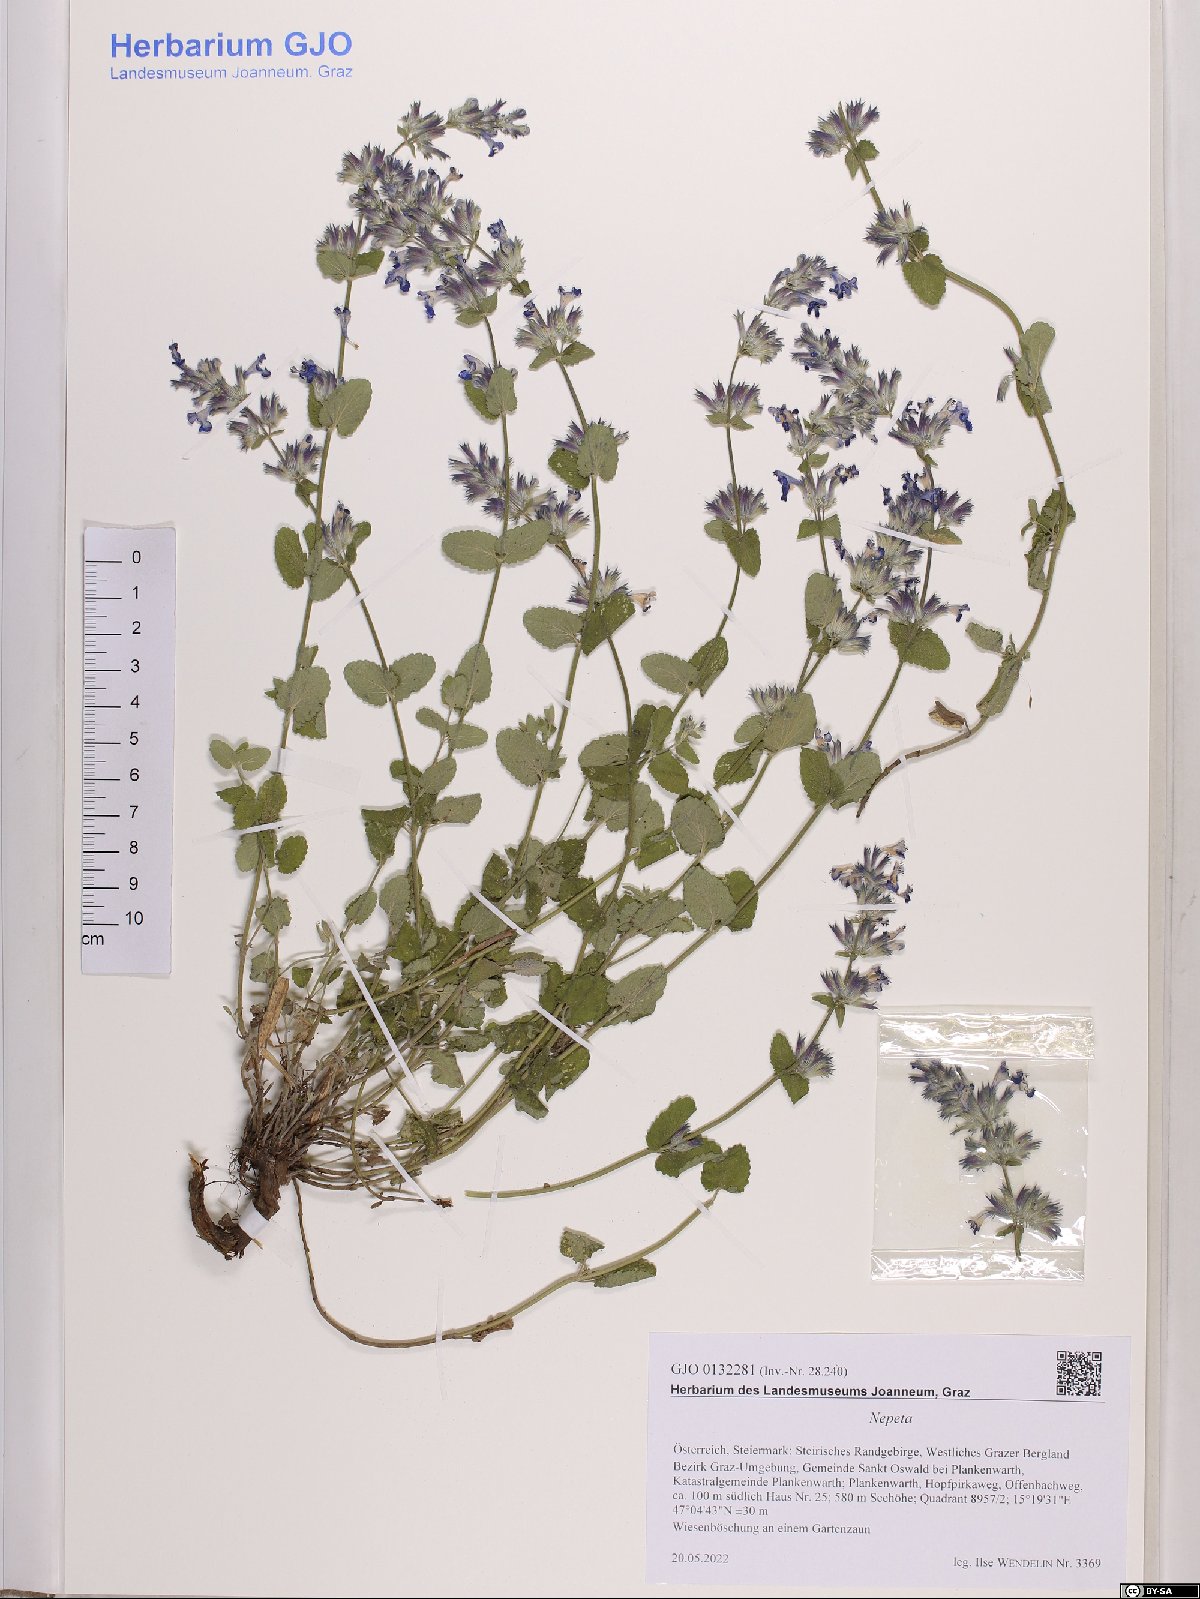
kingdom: Plantae
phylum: Tracheophyta
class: Magnoliopsida
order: Lamiales
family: Lamiaceae
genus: Nepeta
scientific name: Nepeta
